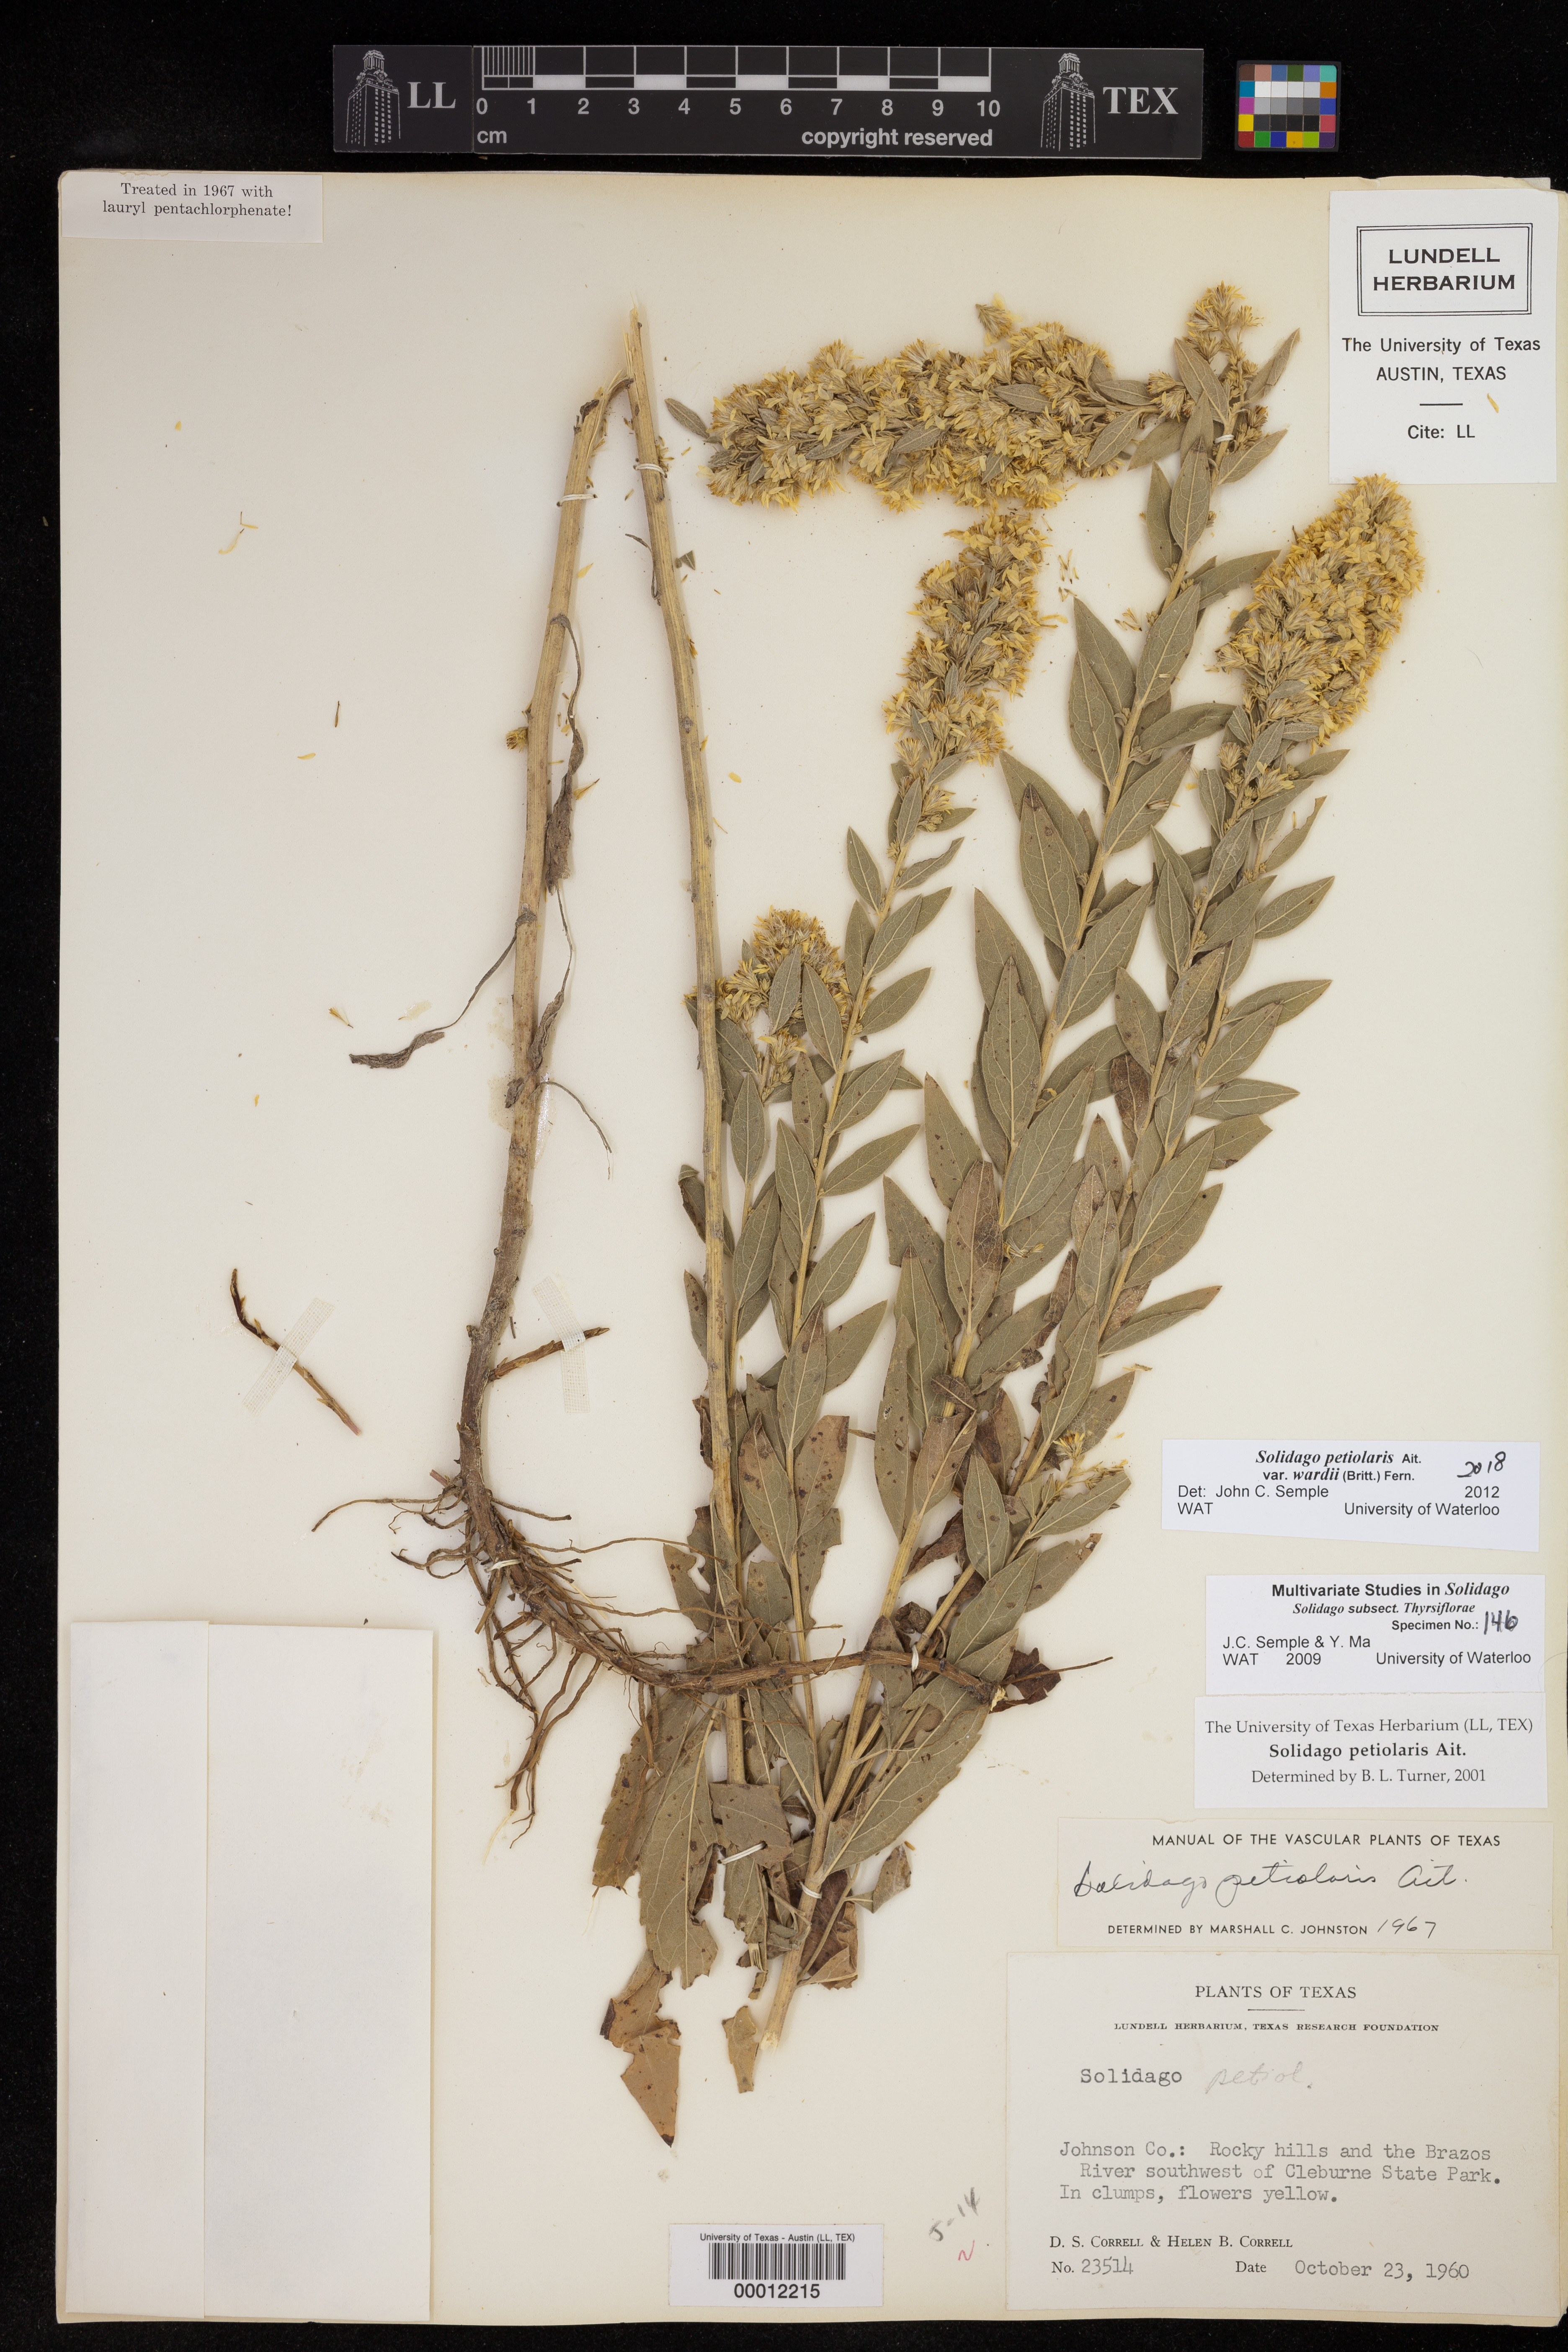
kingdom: Plantae
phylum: Tracheophyta
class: Magnoliopsida
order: Asterales
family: Asteraceae
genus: Solidago
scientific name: Solidago petiolaris
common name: Downy ragged goldenrod
